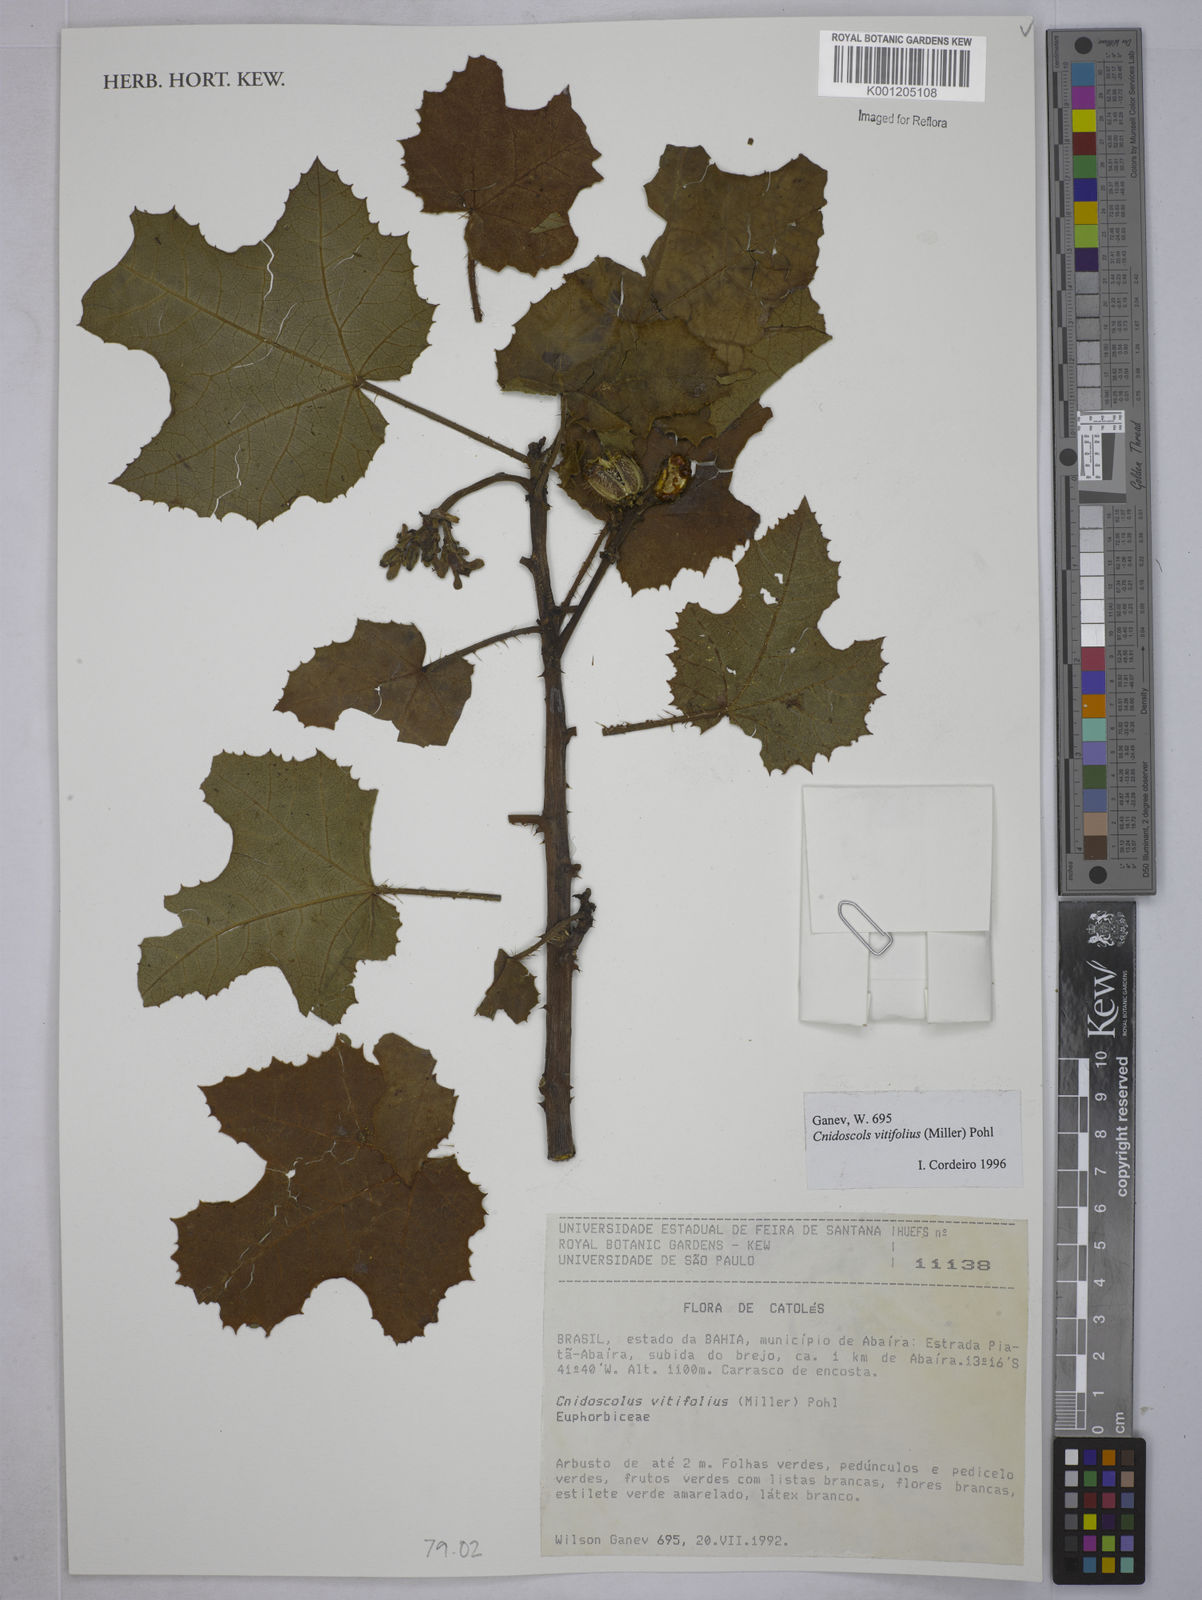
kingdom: Plantae
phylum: Tracheophyta
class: Magnoliopsida
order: Malpighiales
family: Euphorbiaceae
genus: Cnidoscolus
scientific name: Cnidoscolus vitifolius
